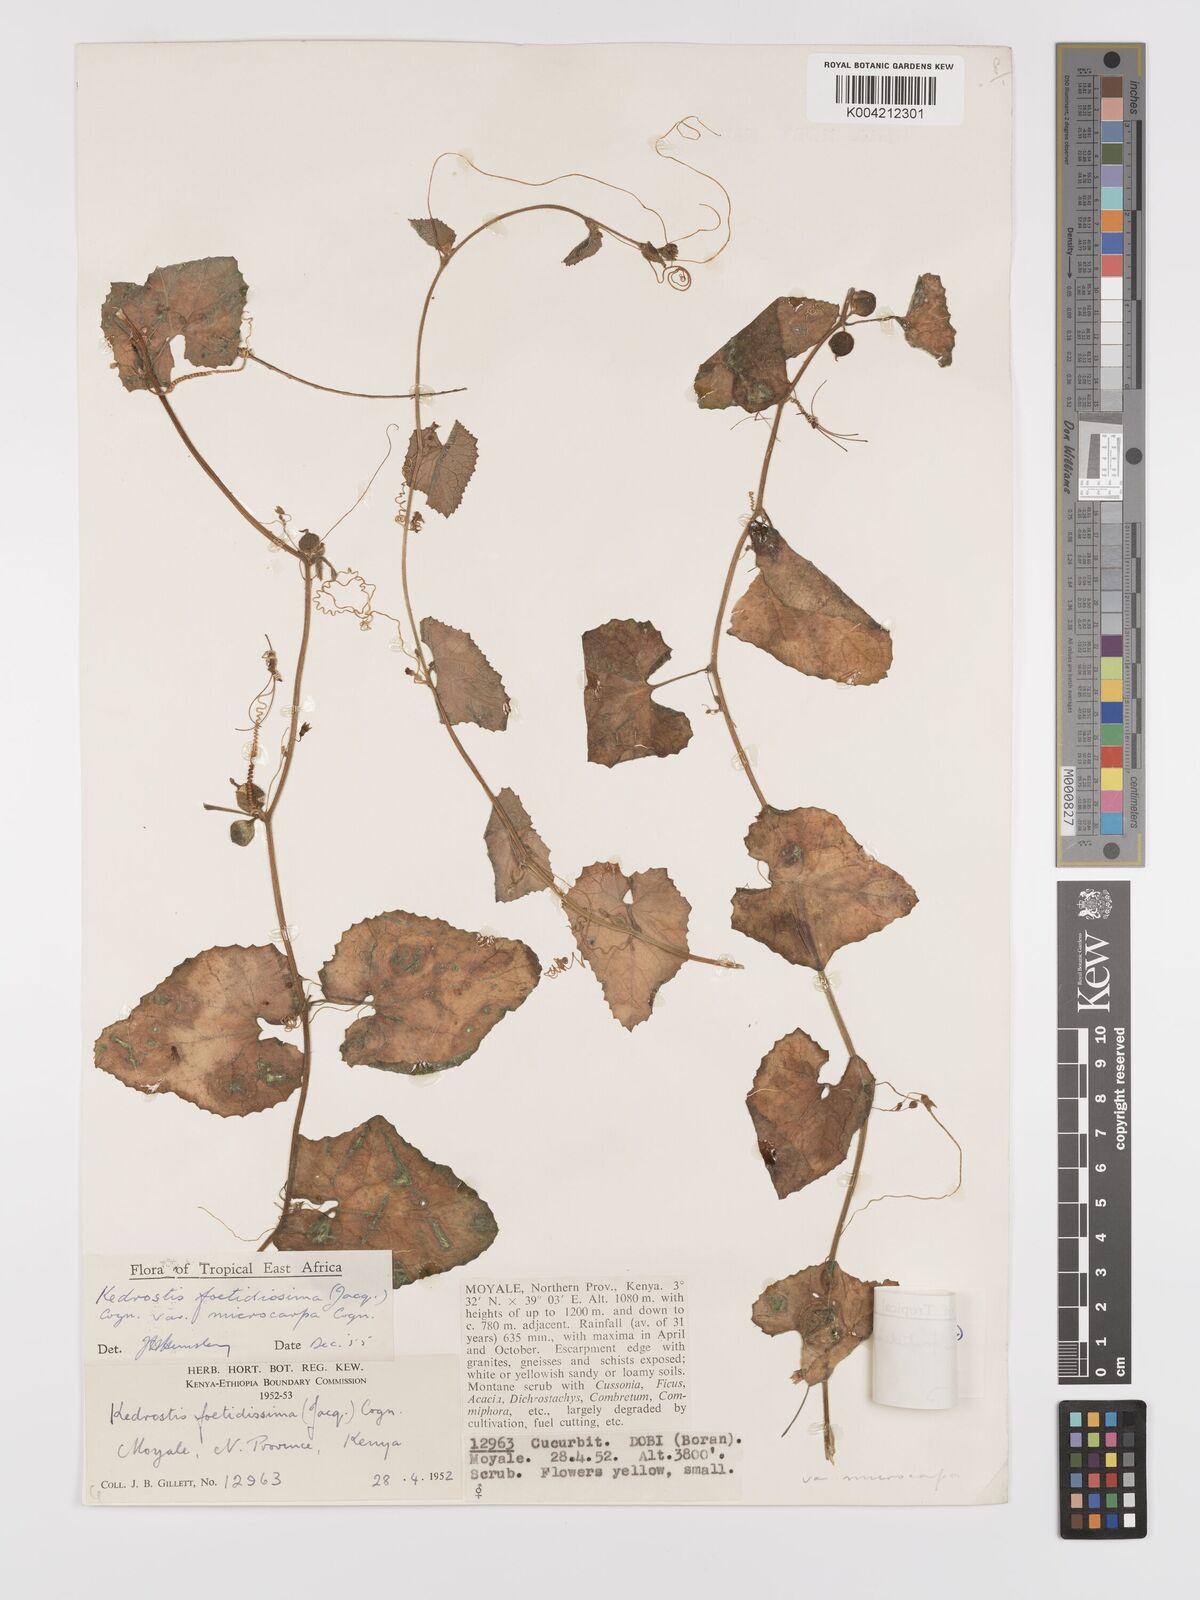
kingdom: Plantae
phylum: Tracheophyta
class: Magnoliopsida
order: Cucurbitales
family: Cucurbitaceae
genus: Kedrostis
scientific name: Kedrostis foetidissima
